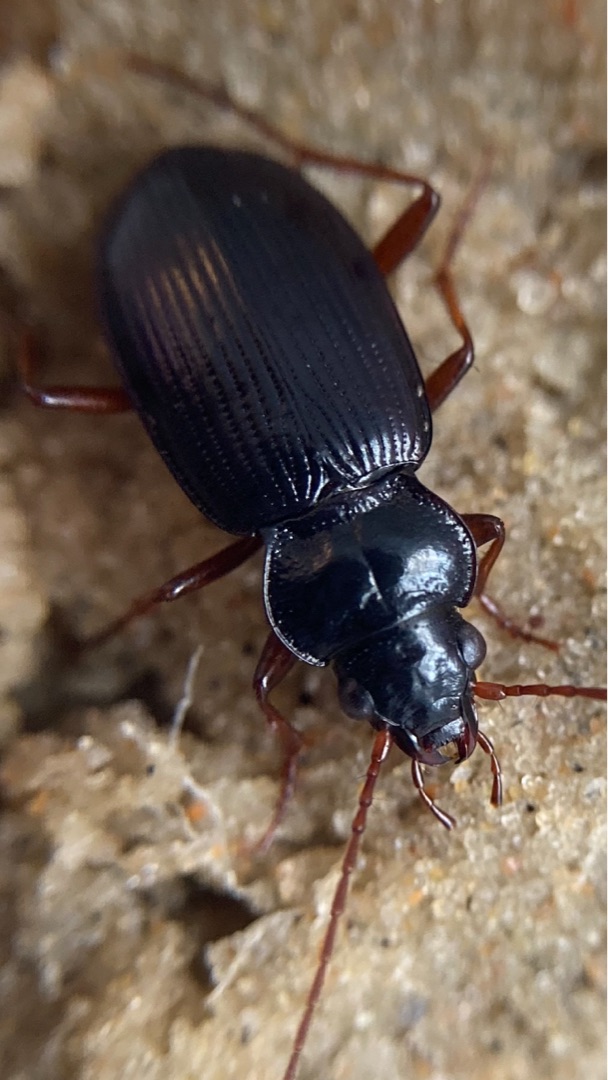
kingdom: Animalia
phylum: Arthropoda
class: Insecta
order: Coleoptera
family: Carabidae
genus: Nebria
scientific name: Nebria salina
